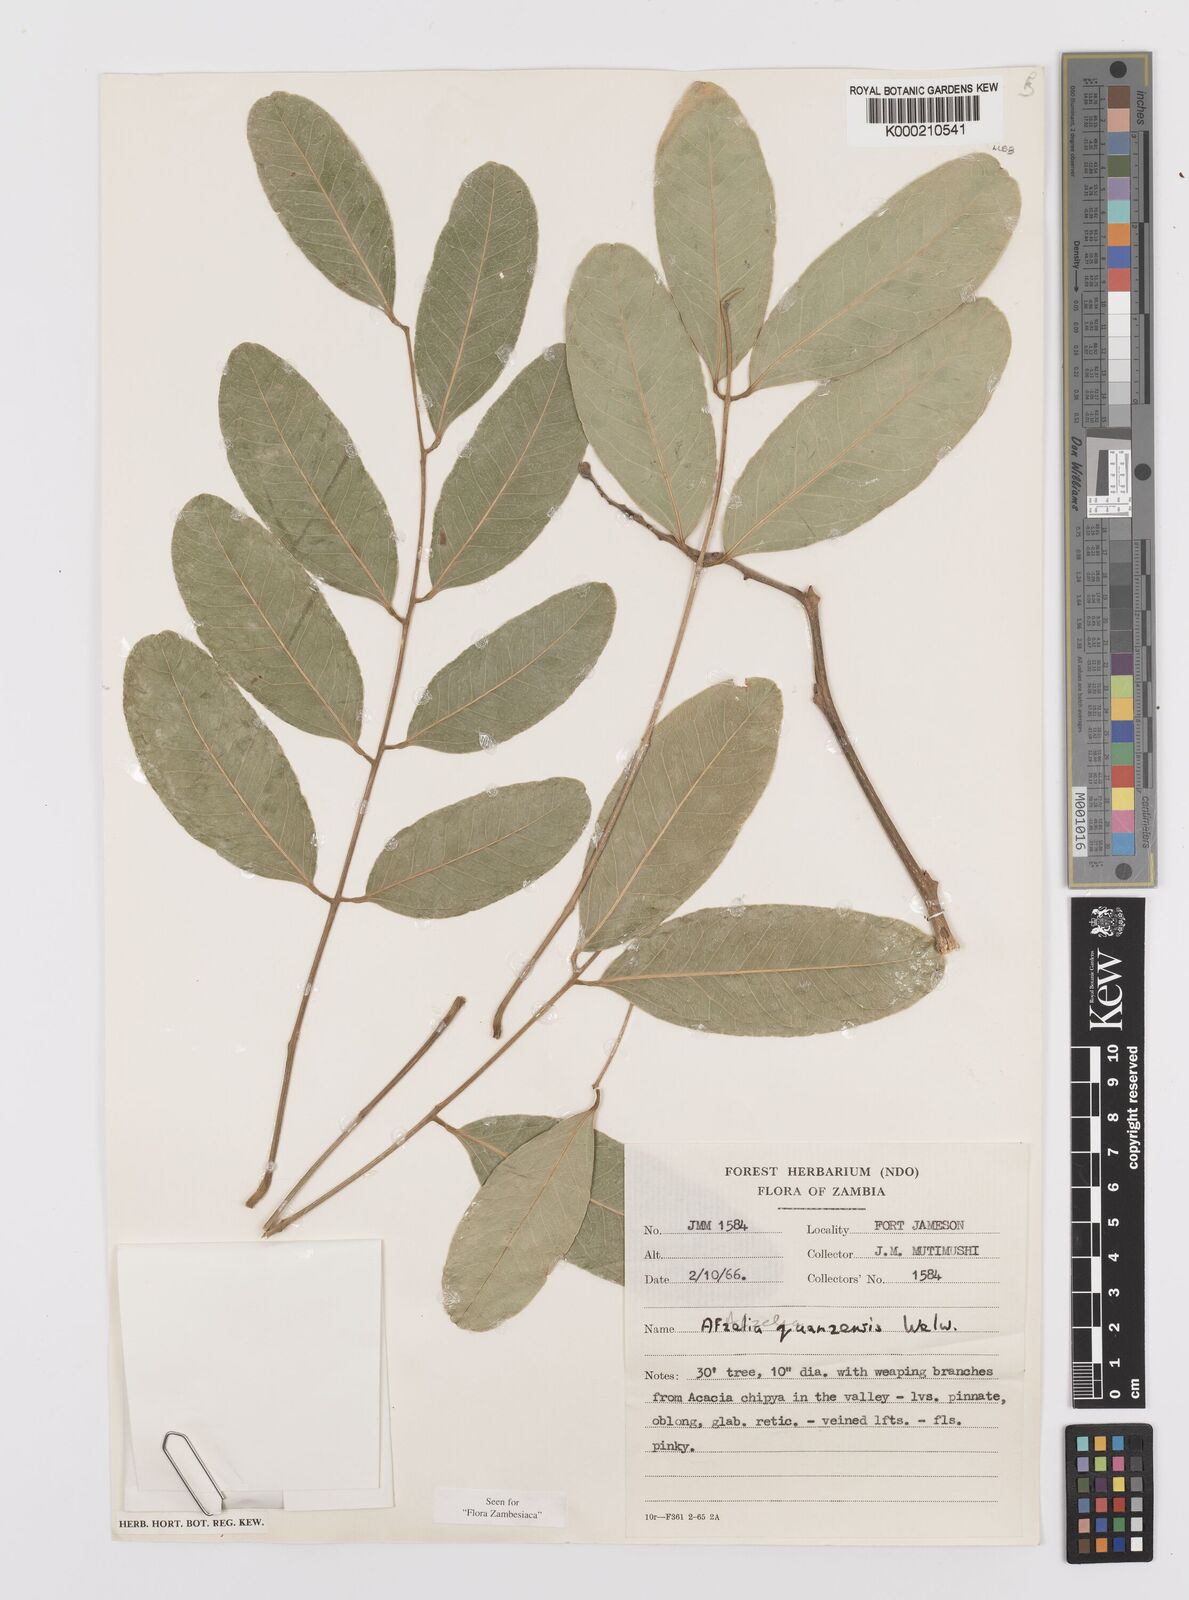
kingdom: Plantae
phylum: Tracheophyta
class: Magnoliopsida
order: Fabales
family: Fabaceae
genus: Afzelia
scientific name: Afzelia quanzensis
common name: Pod mahogany
